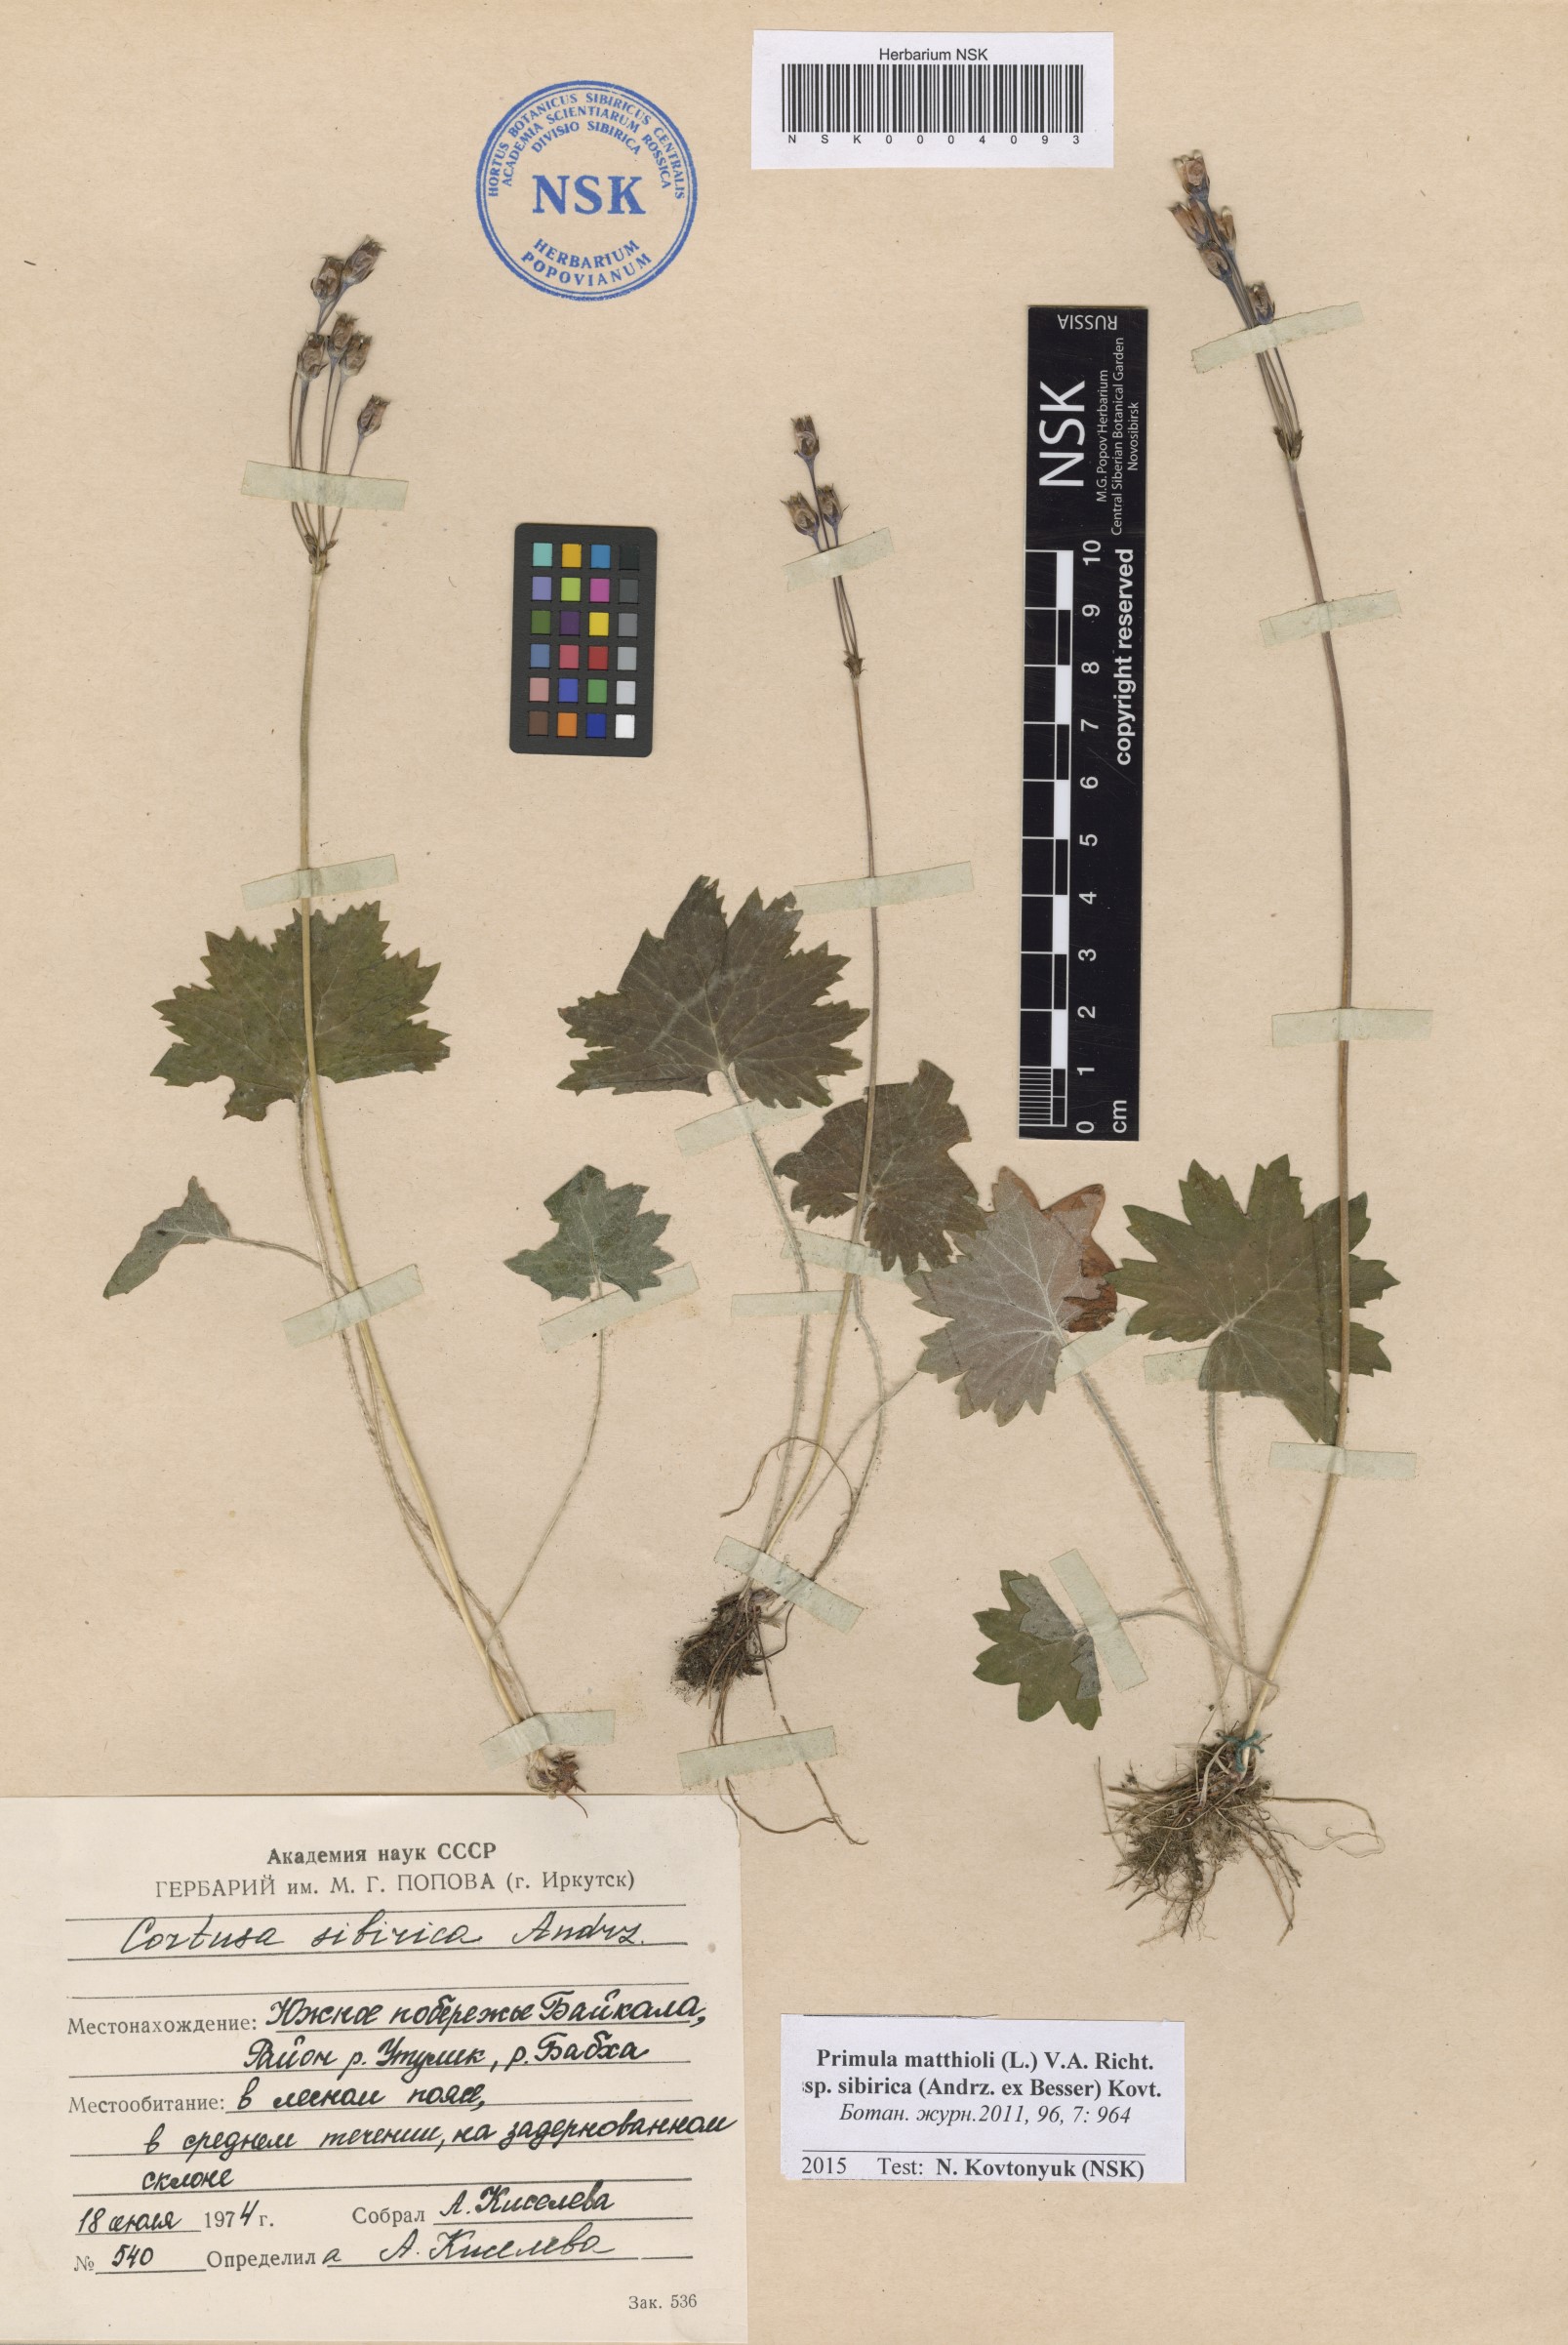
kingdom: Plantae
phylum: Tracheophyta
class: Magnoliopsida
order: Ericales
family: Primulaceae
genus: Primula
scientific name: Primula matthioli
